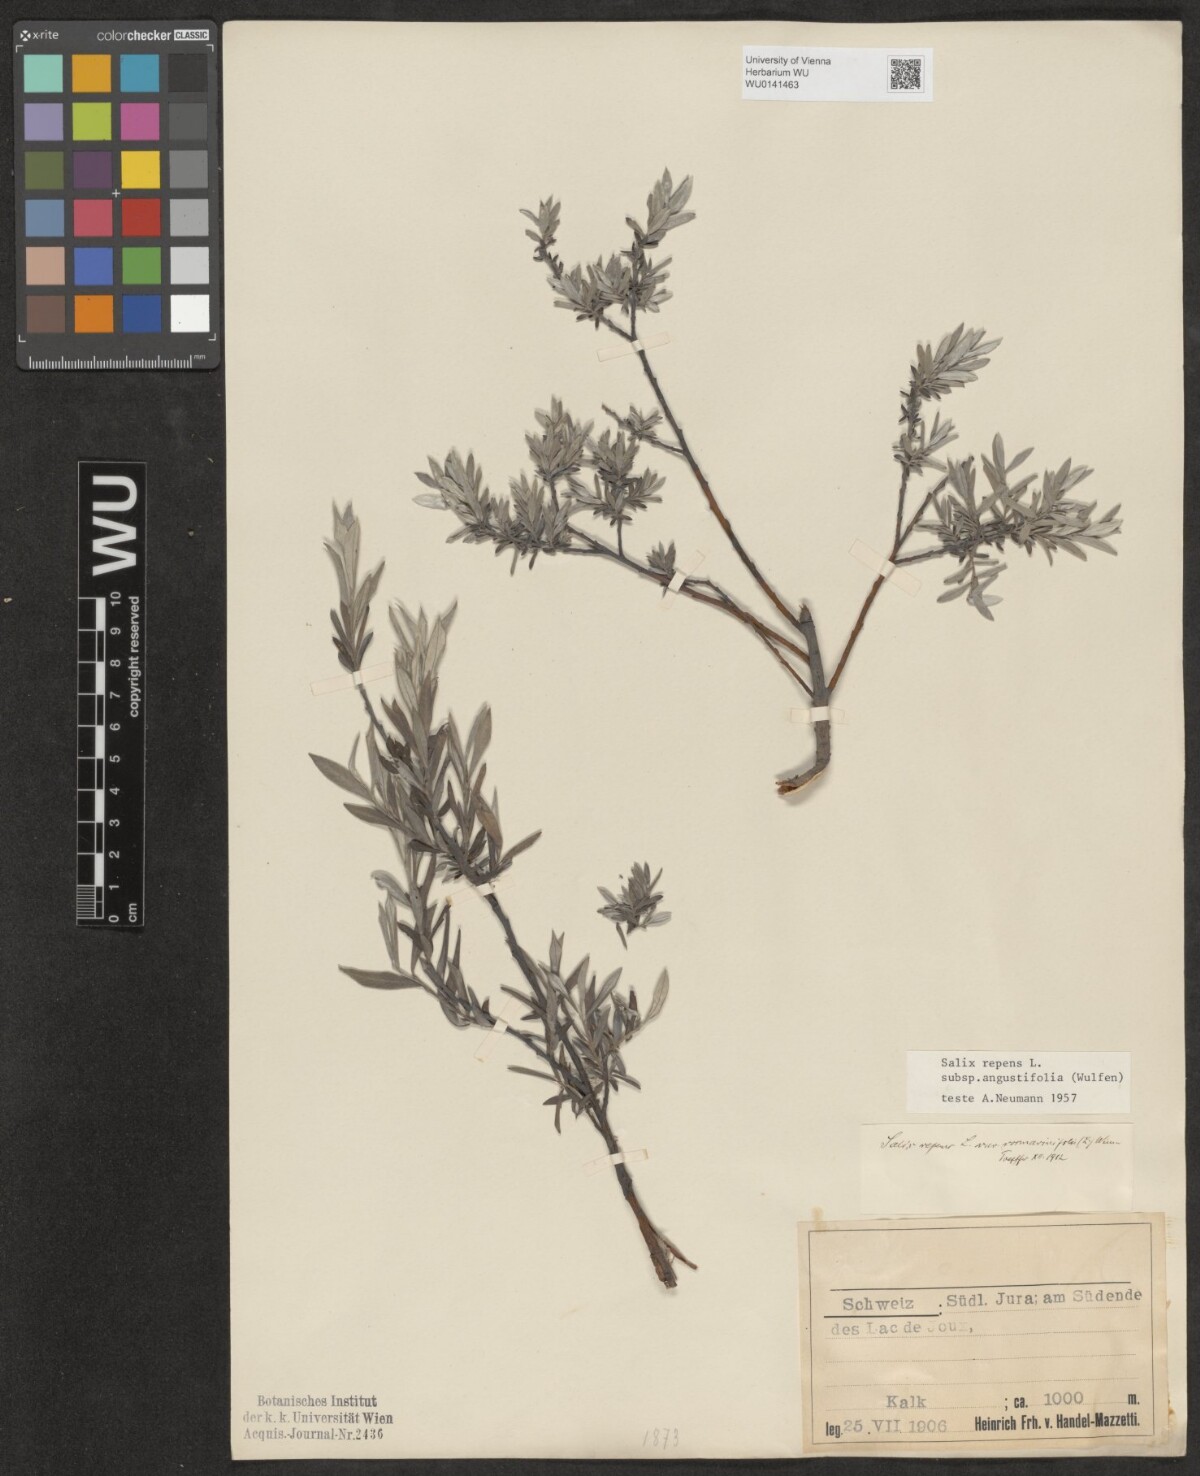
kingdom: Plantae
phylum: Tracheophyta
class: Magnoliopsida
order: Malpighiales
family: Salicaceae
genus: Salix
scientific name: Salix rosmarinifolia
